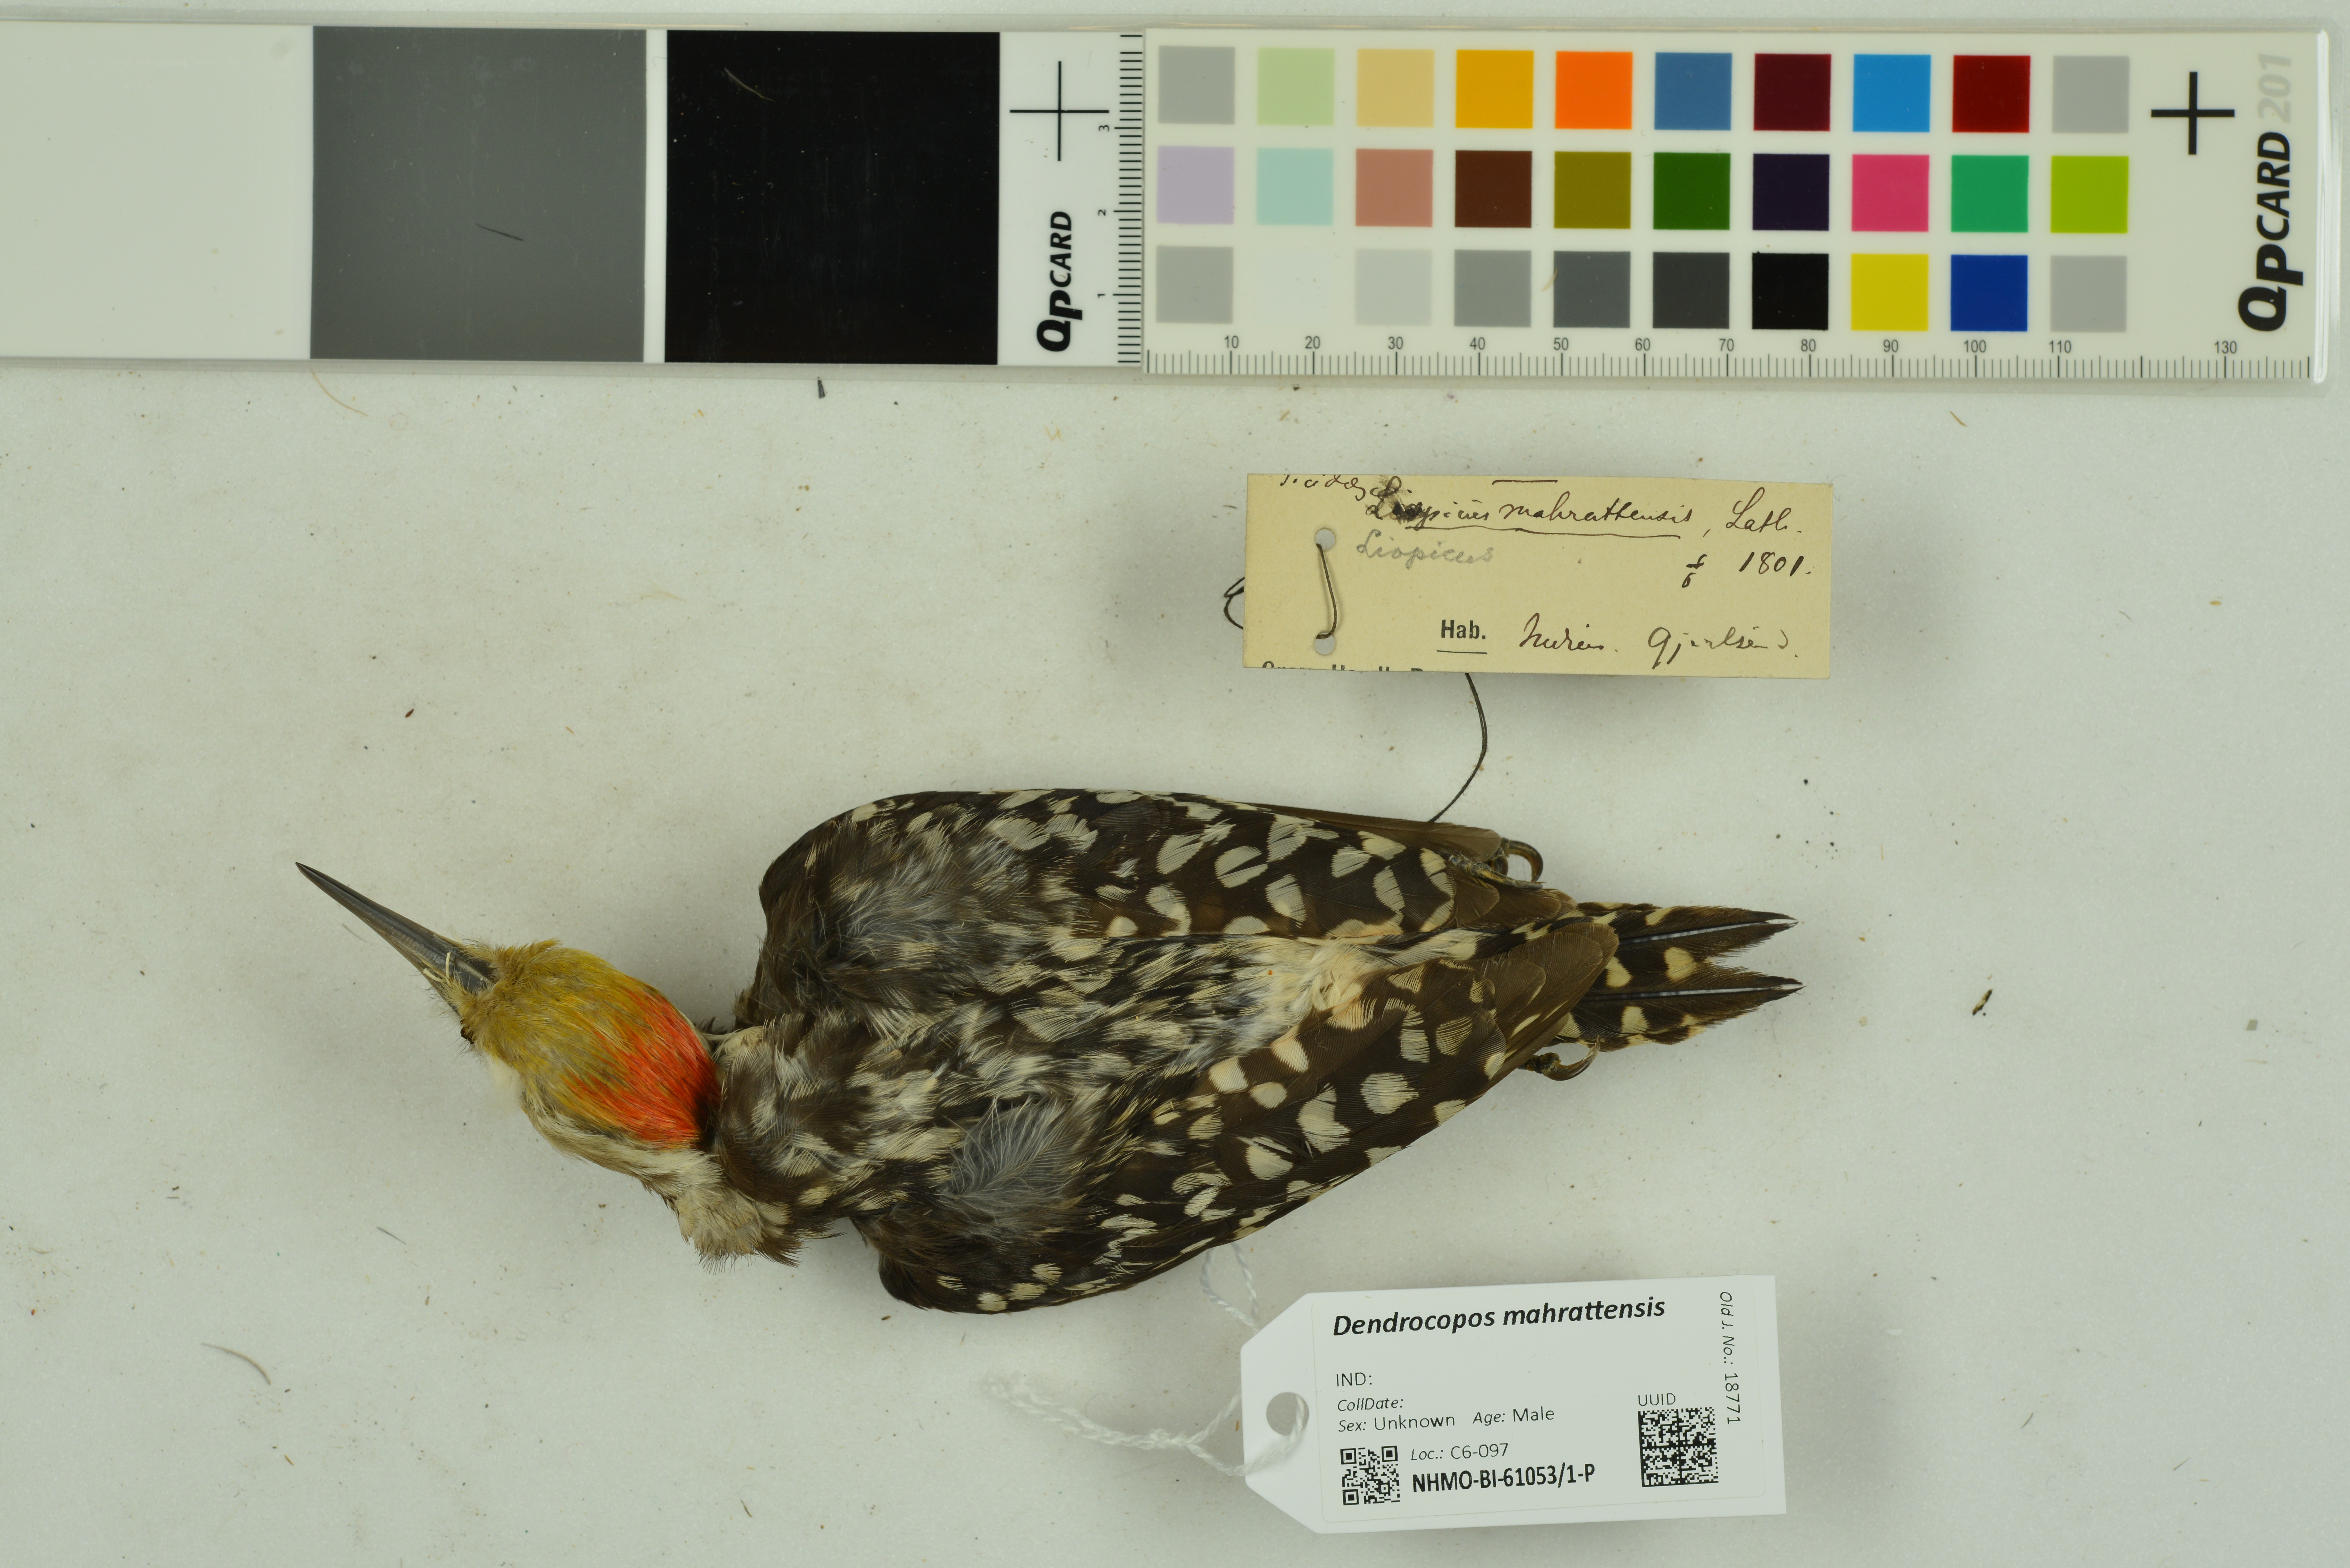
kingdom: Animalia
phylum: Chordata
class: Aves
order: Piciformes
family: Picidae
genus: Leiopicus
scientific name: Leiopicus mahrattensis
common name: Yellow-crowned woodpecker
